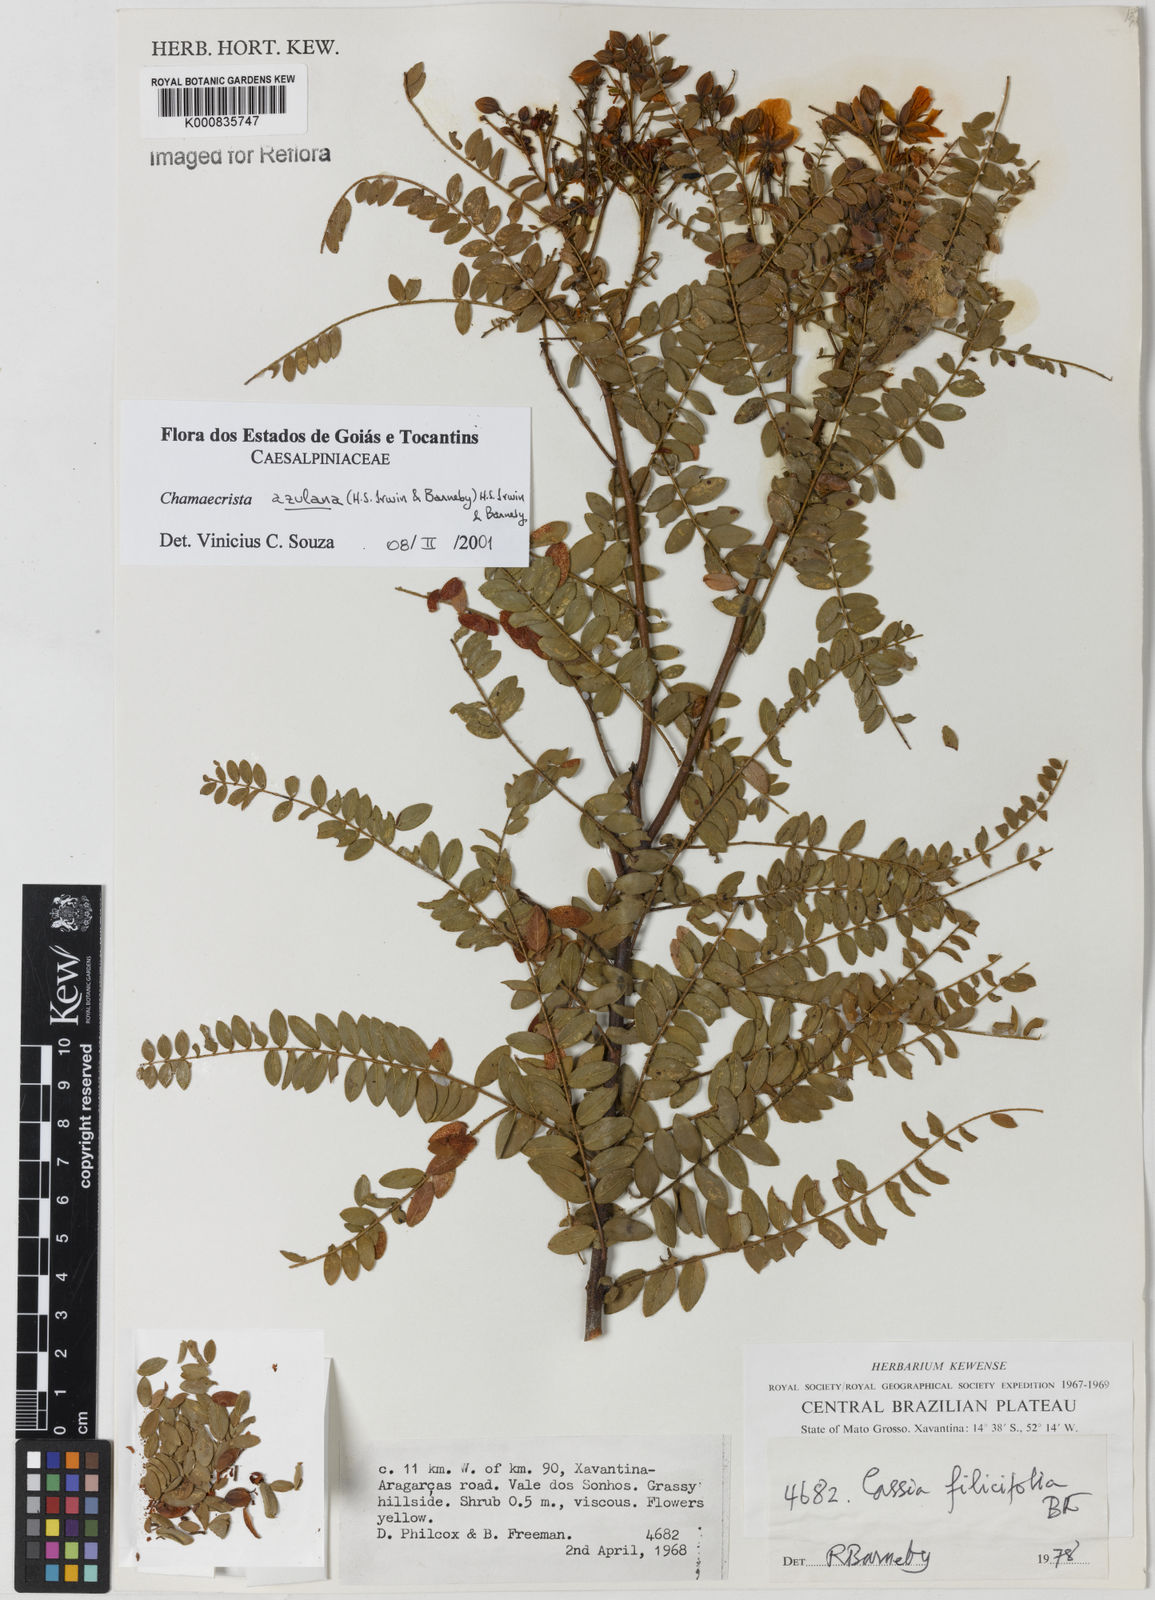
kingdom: Plantae
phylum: Tracheophyta
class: Magnoliopsida
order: Fabales
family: Fabaceae
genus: Chamaecrista
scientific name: Chamaecrista azulana
